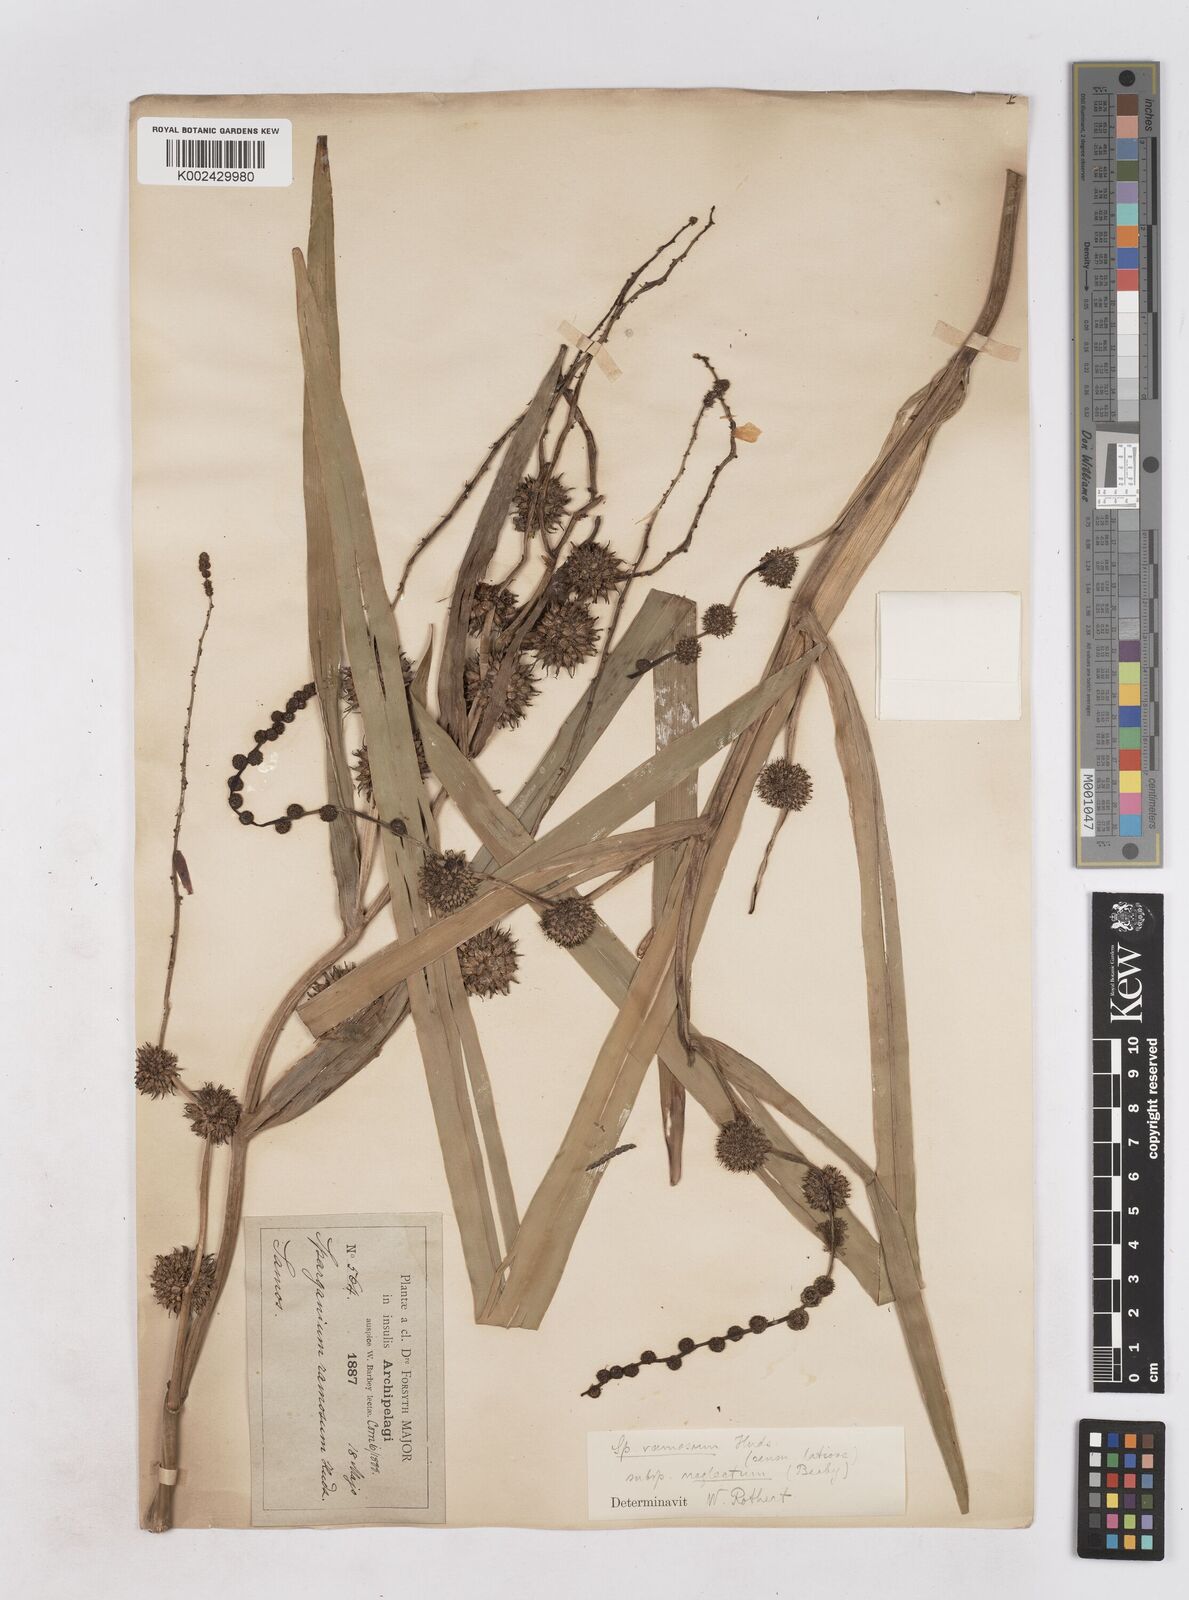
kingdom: Plantae
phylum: Tracheophyta
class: Liliopsida
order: Poales
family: Typhaceae
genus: Sparganium
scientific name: Sparganium erectum
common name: Branched bur-reed
